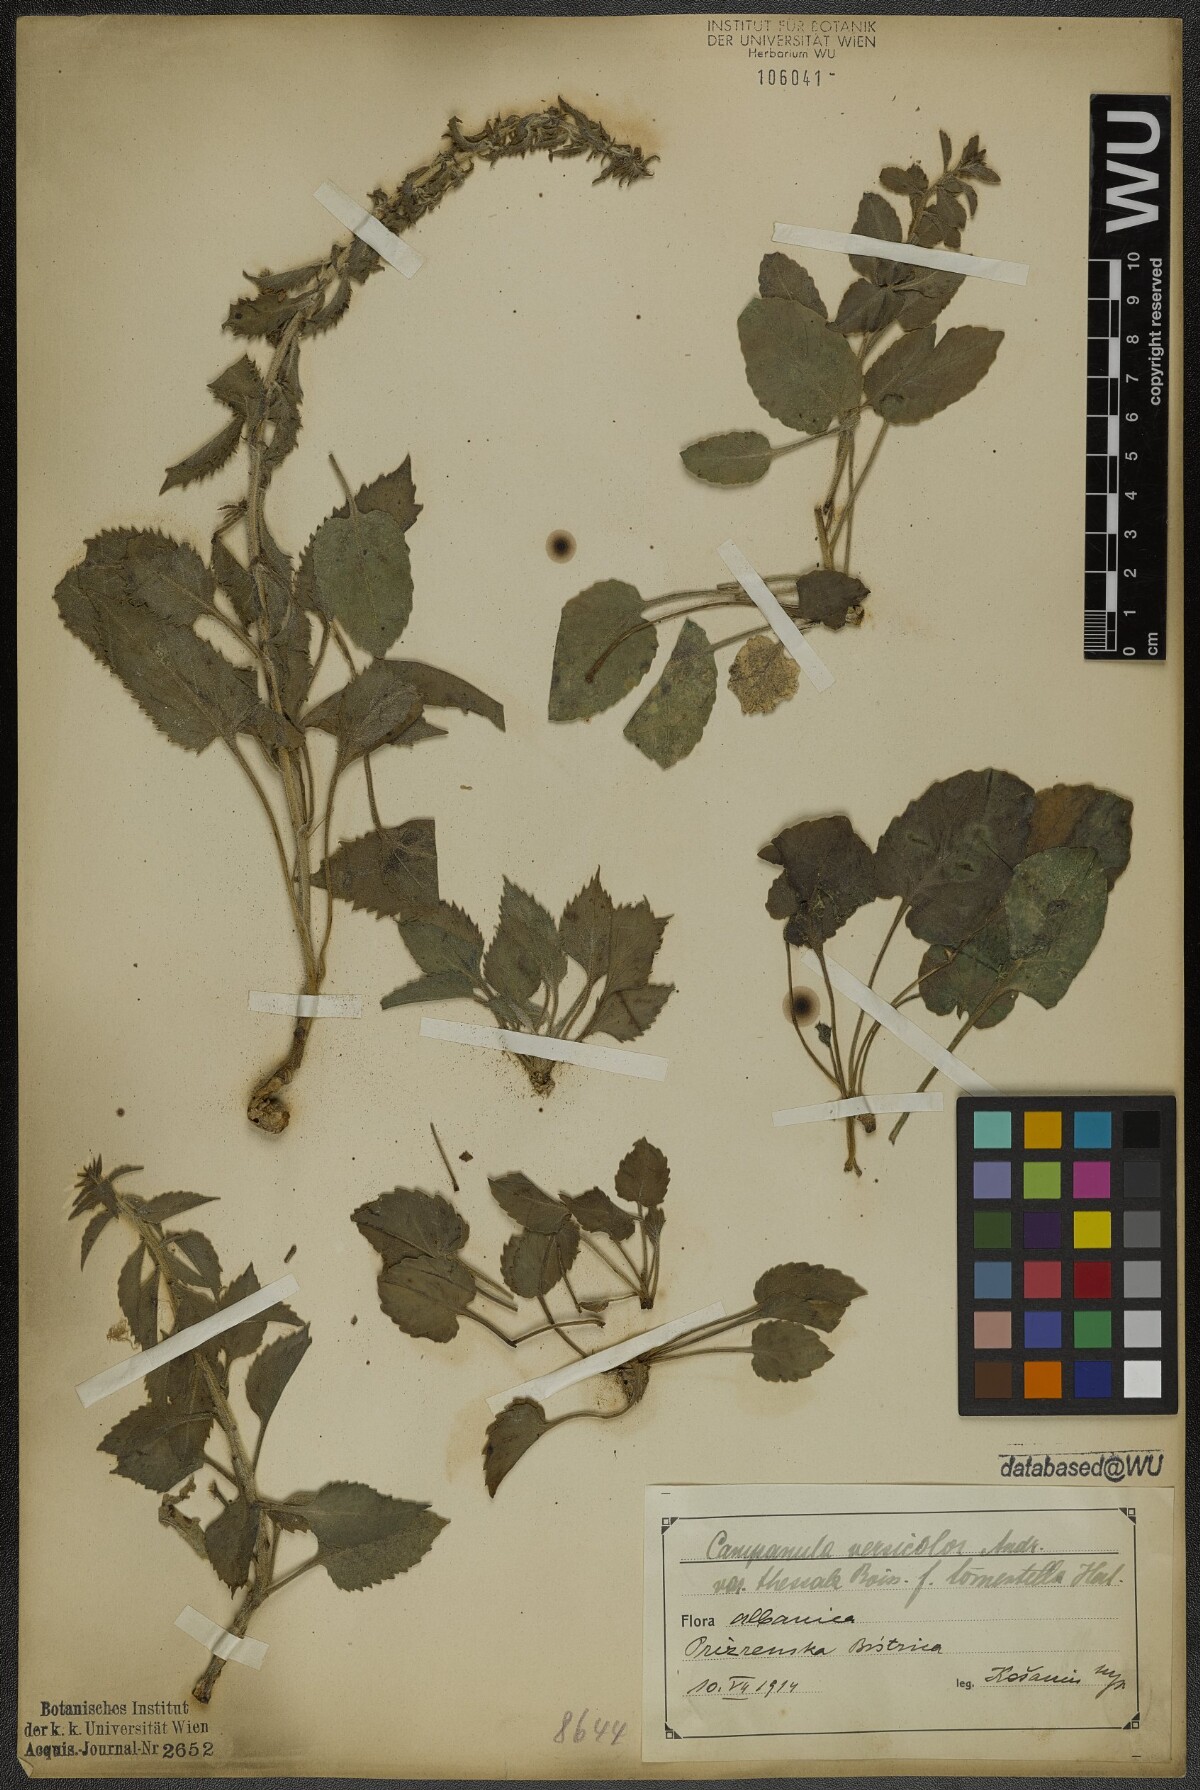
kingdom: Plantae
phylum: Tracheophyta
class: Magnoliopsida
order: Asterales
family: Campanulaceae
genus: Campanula
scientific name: Campanula versicolor
